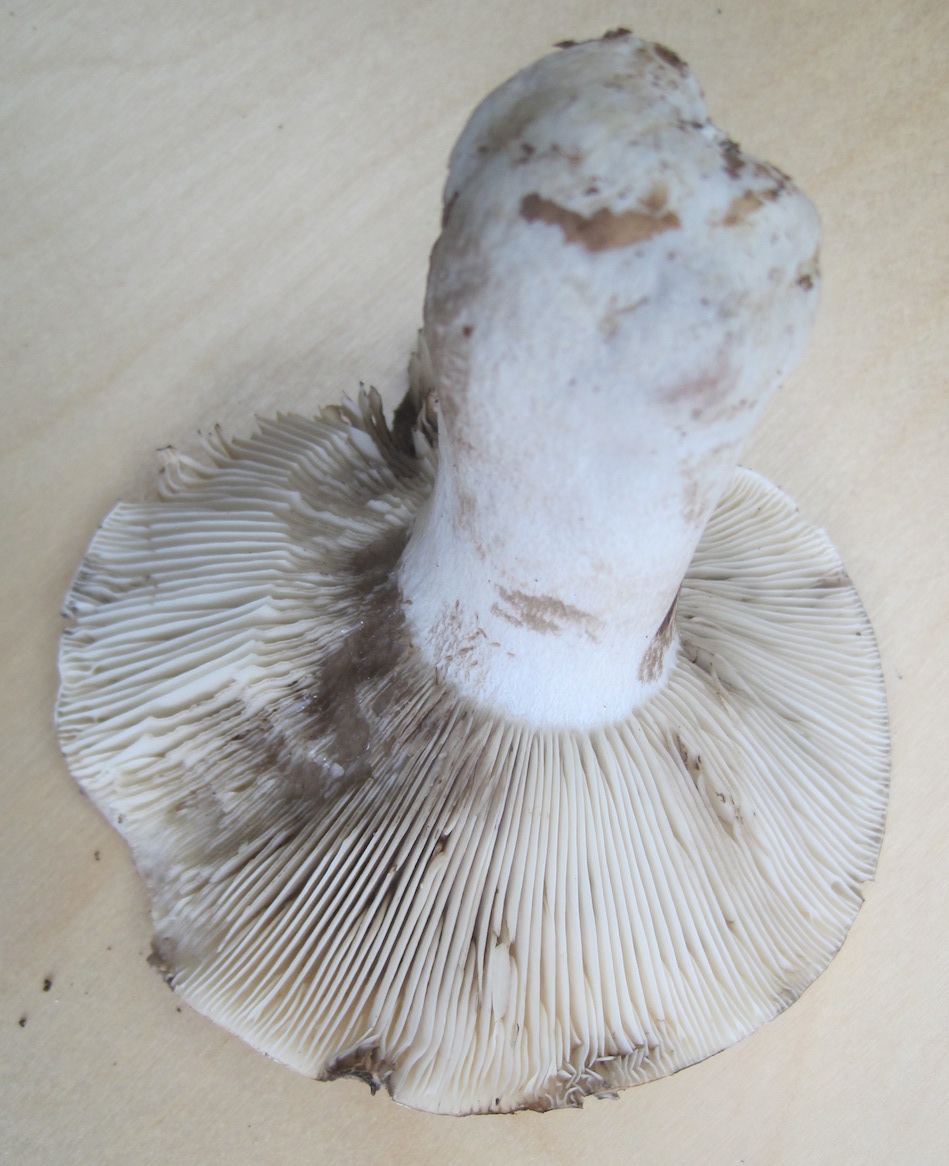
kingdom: Fungi
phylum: Basidiomycota
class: Agaricomycetes
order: Russulales
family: Russulaceae
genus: Russula
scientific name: Russula acrifolia
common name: skarpbladet skørhat
